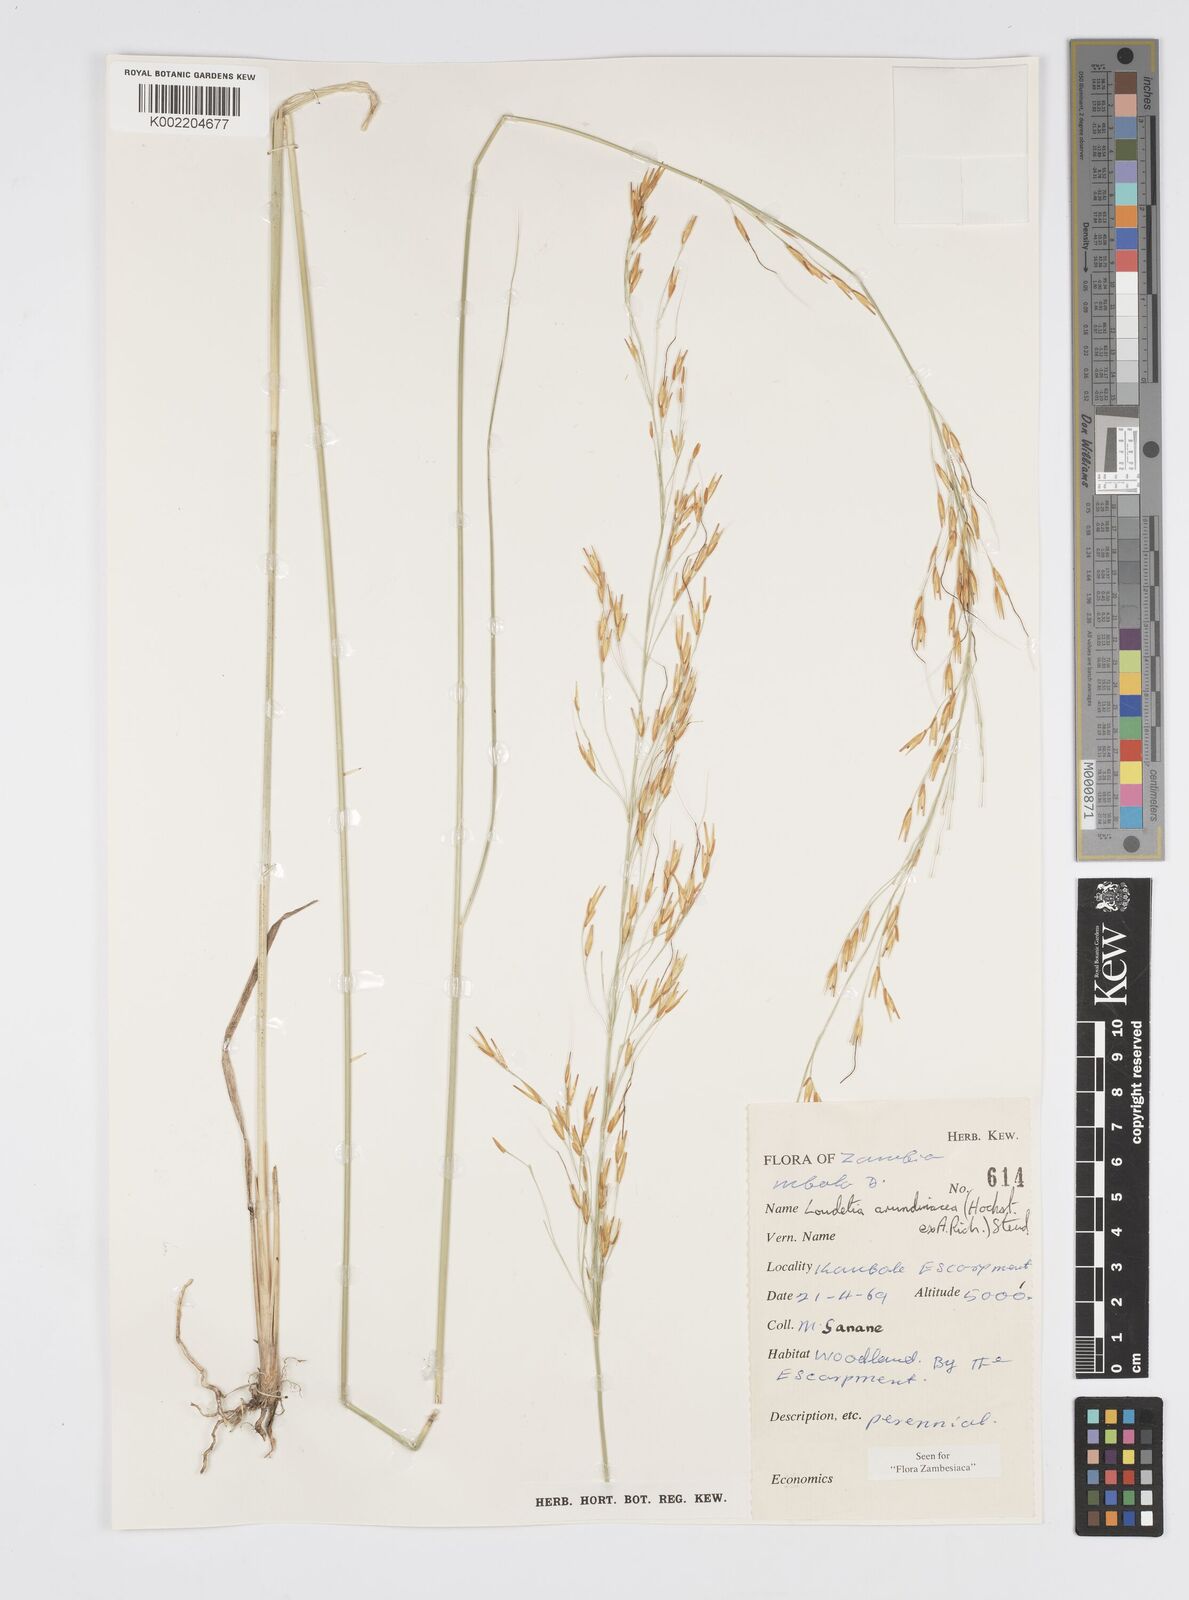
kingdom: Plantae
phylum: Tracheophyta
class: Liliopsida
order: Poales
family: Poaceae
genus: Loudetia
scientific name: Loudetia arundinacea
